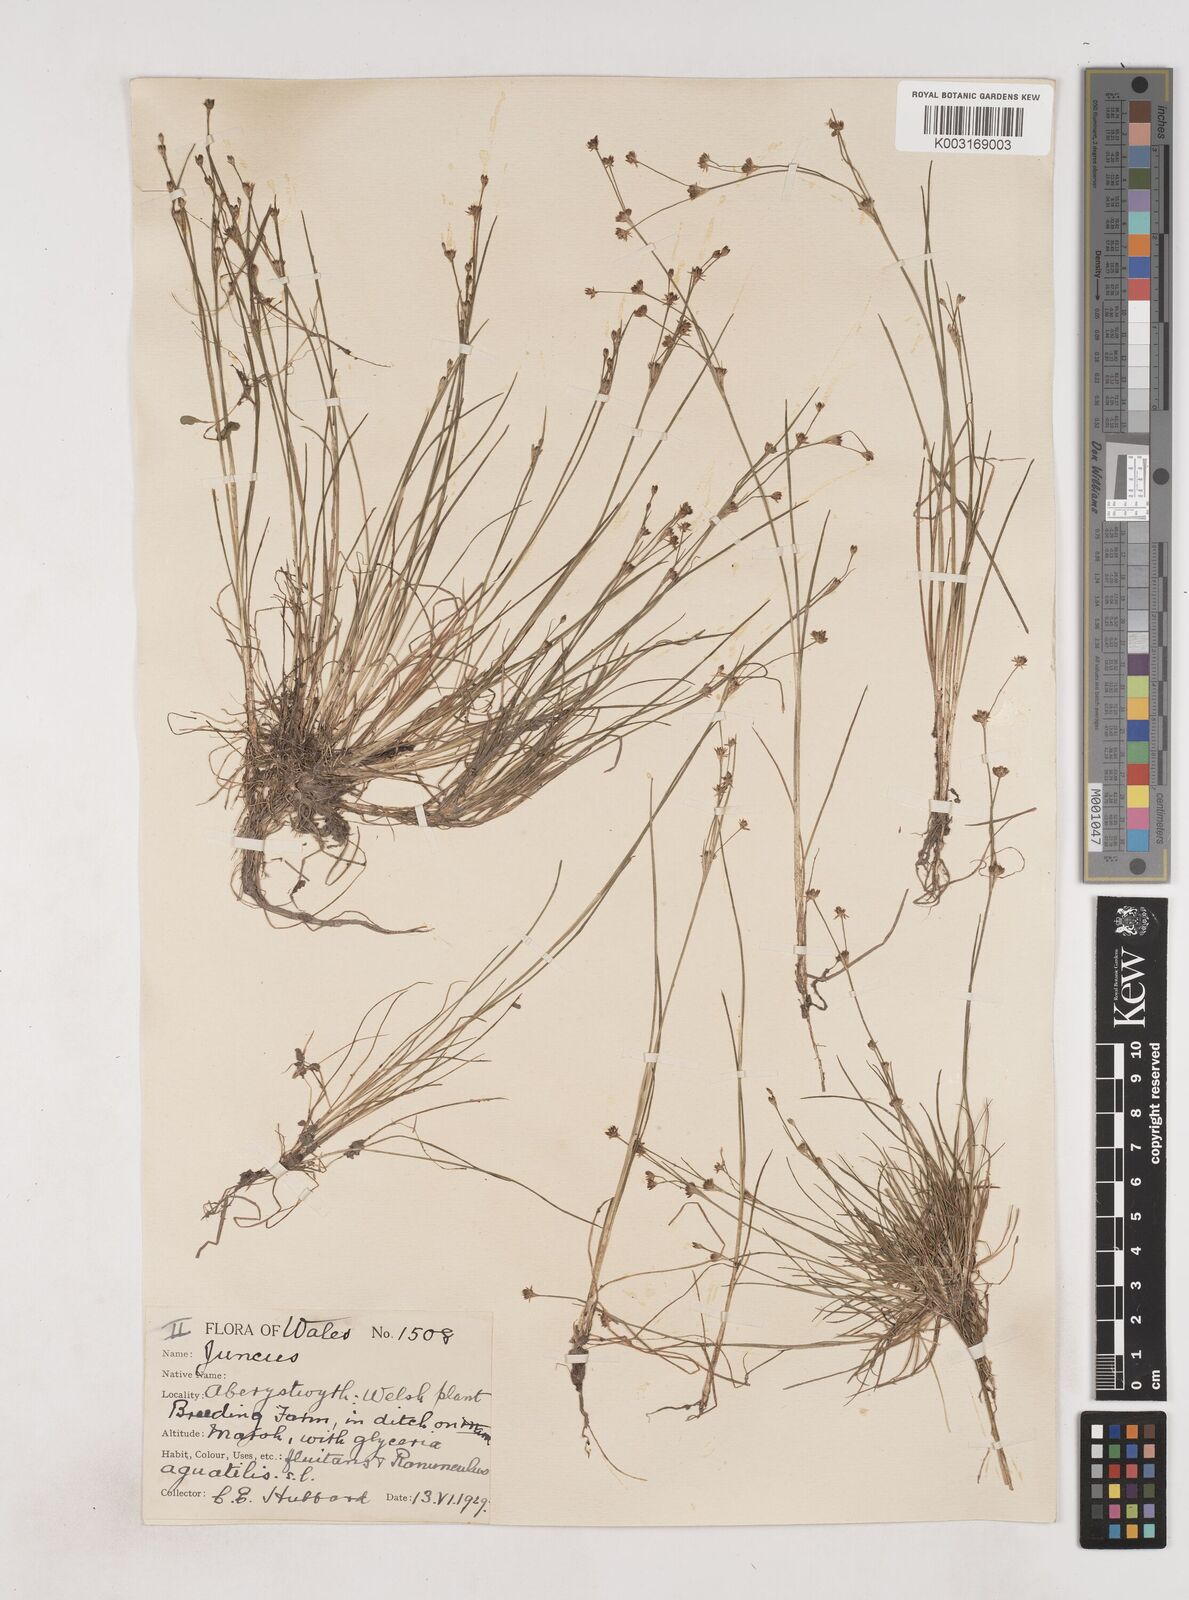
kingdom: Plantae
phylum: Tracheophyta
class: Liliopsida
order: Poales
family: Juncaceae
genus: Juncus
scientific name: Juncus bulbosus
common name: Bulbous rush
